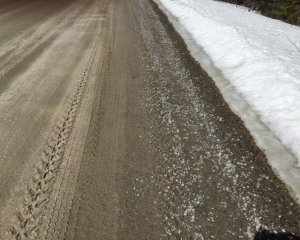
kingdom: Animalia
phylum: Arthropoda
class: Insecta
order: Lepidoptera
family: Nymphalidae
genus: Polygonia
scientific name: Polygonia faunus
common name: Green Comma
